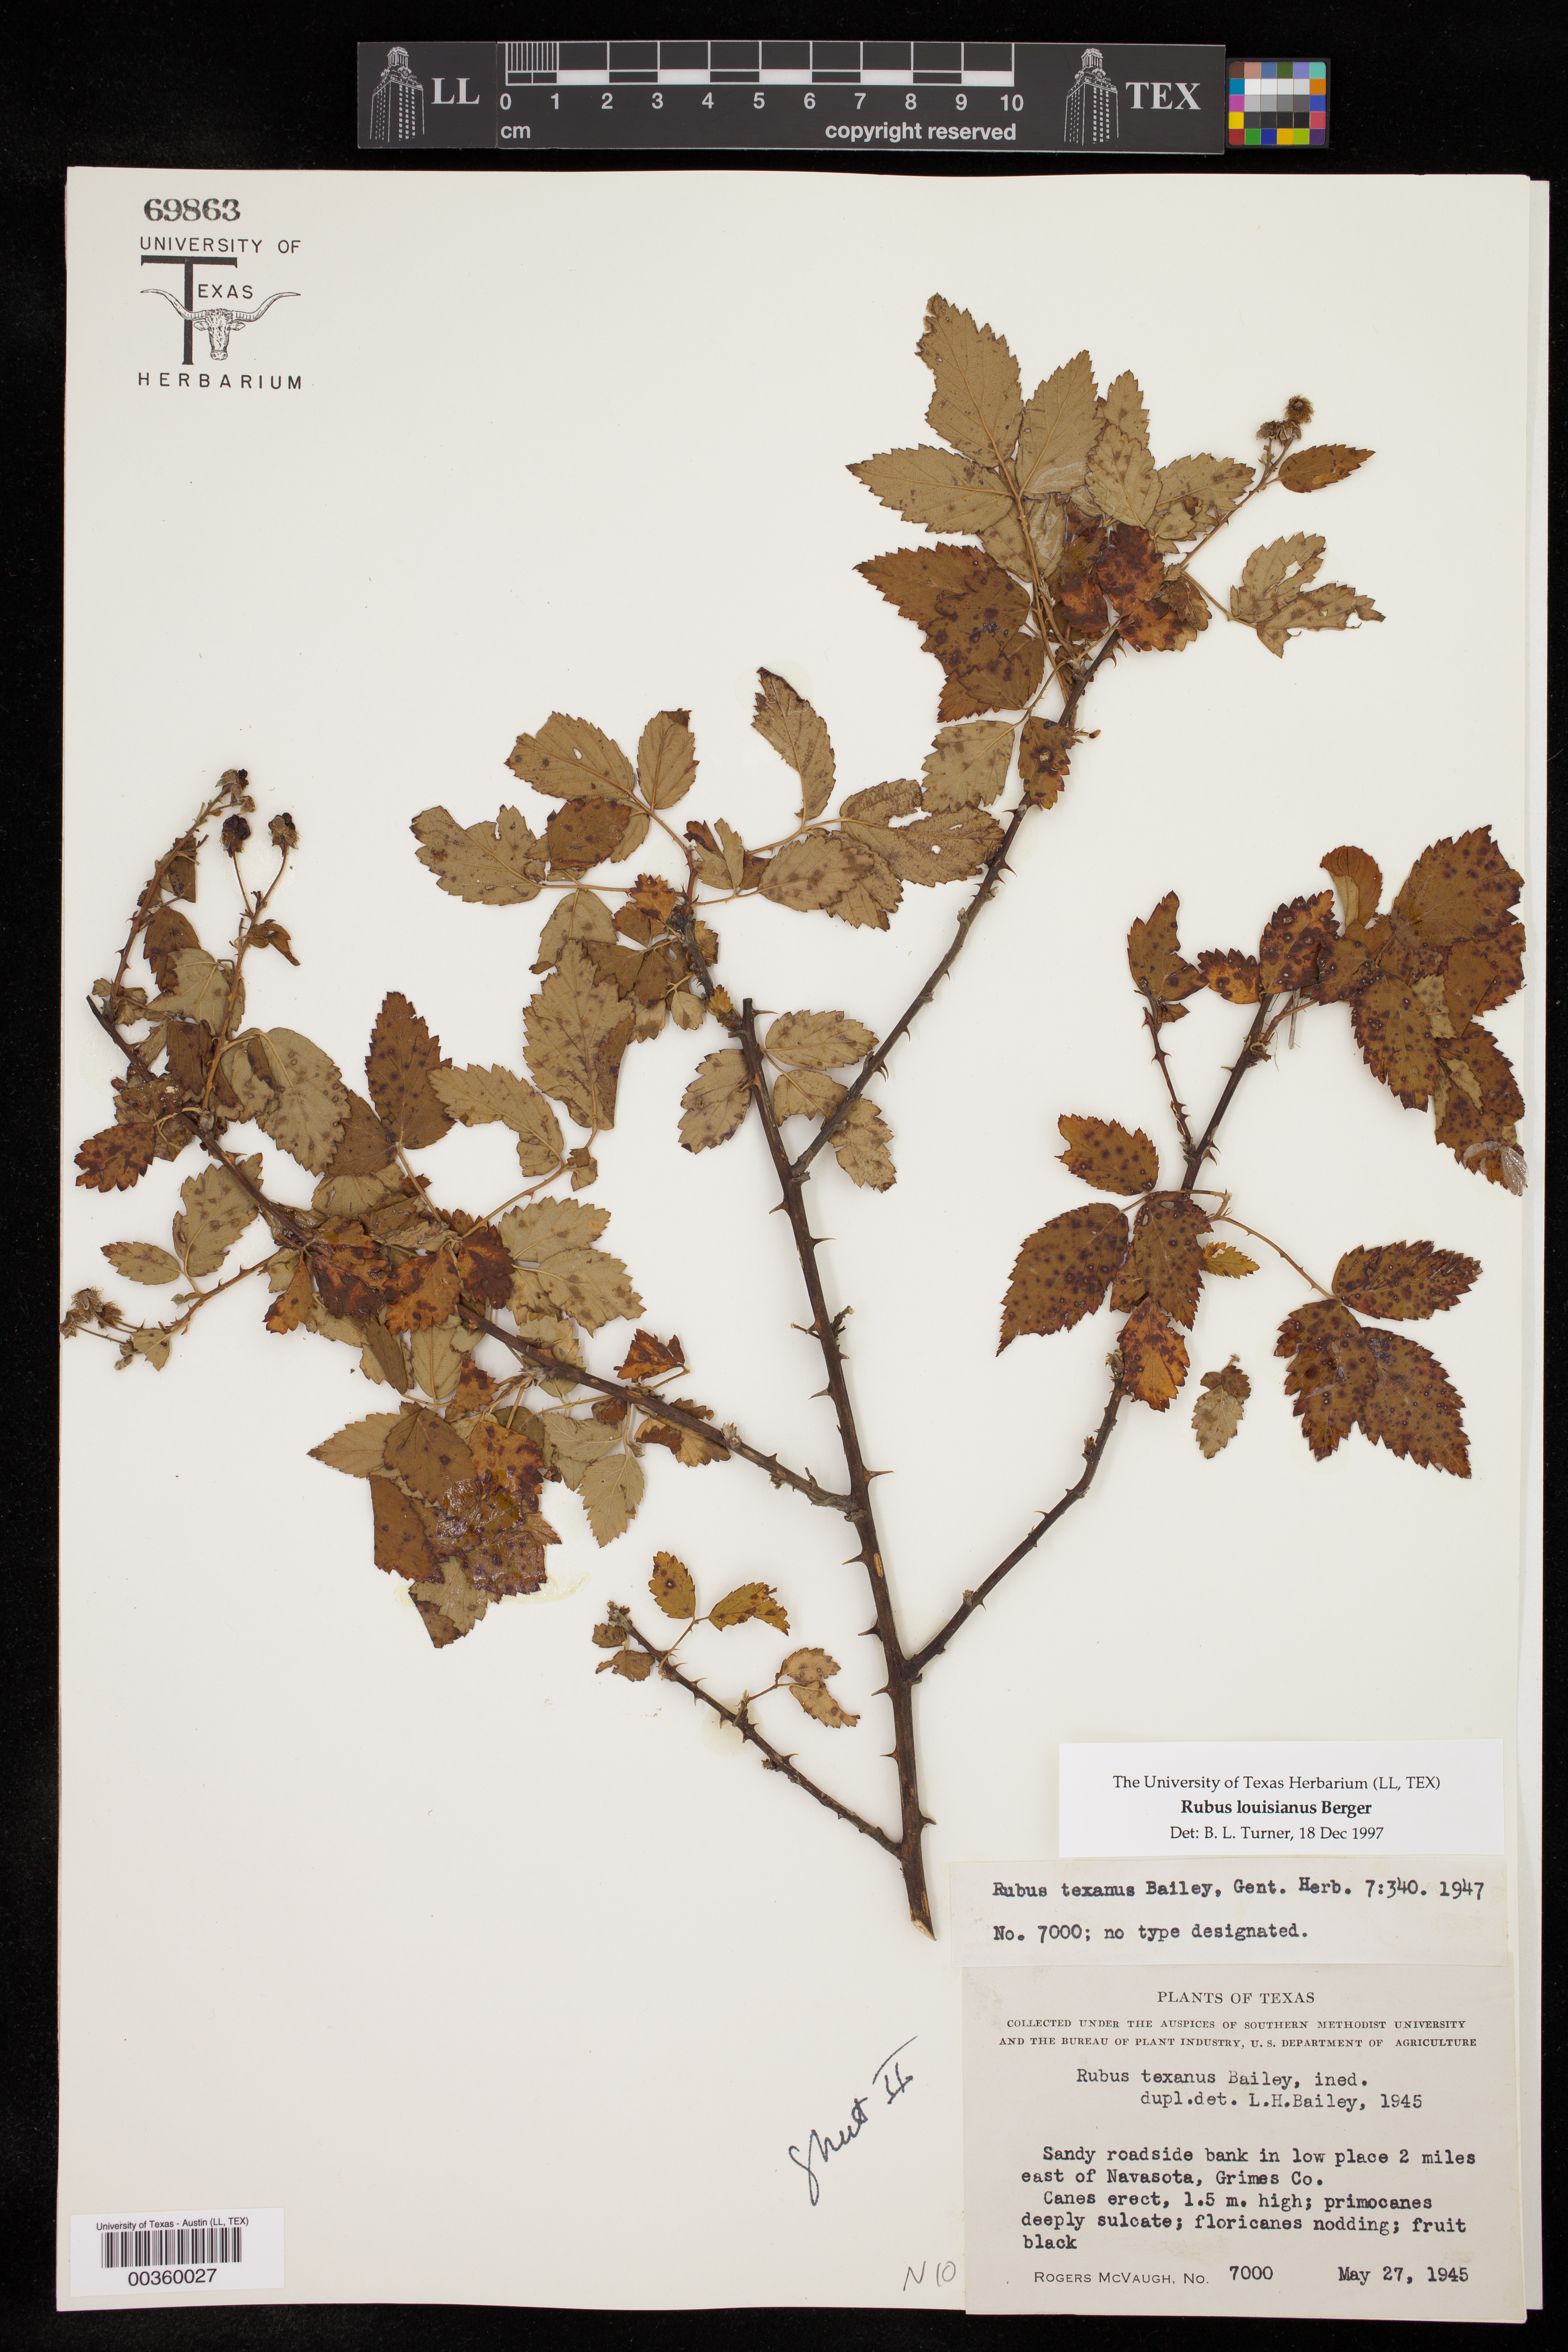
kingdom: Plantae
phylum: Tracheophyta
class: Magnoliopsida
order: Rosales
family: Rosaceae
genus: Rubus
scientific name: Rubus argutus
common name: Sawtooth blackberry
